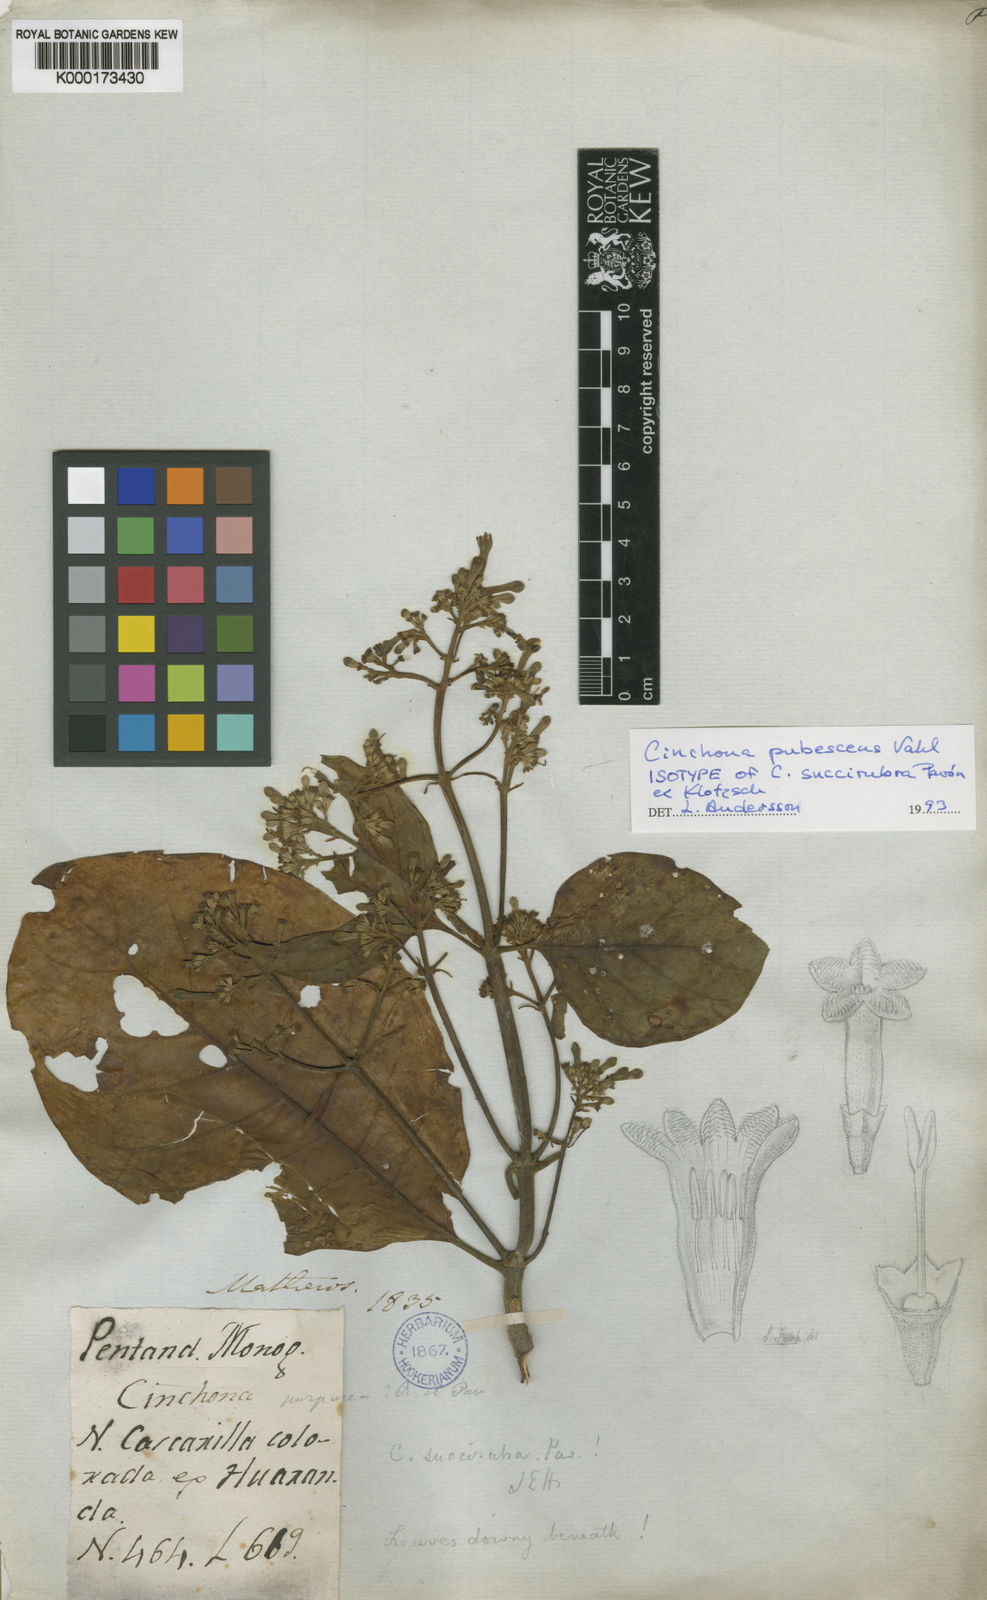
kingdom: Plantae
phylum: Tracheophyta
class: Magnoliopsida
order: Gentianales
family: Rubiaceae
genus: Cinchona
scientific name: Cinchona pubescens
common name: Quinine
